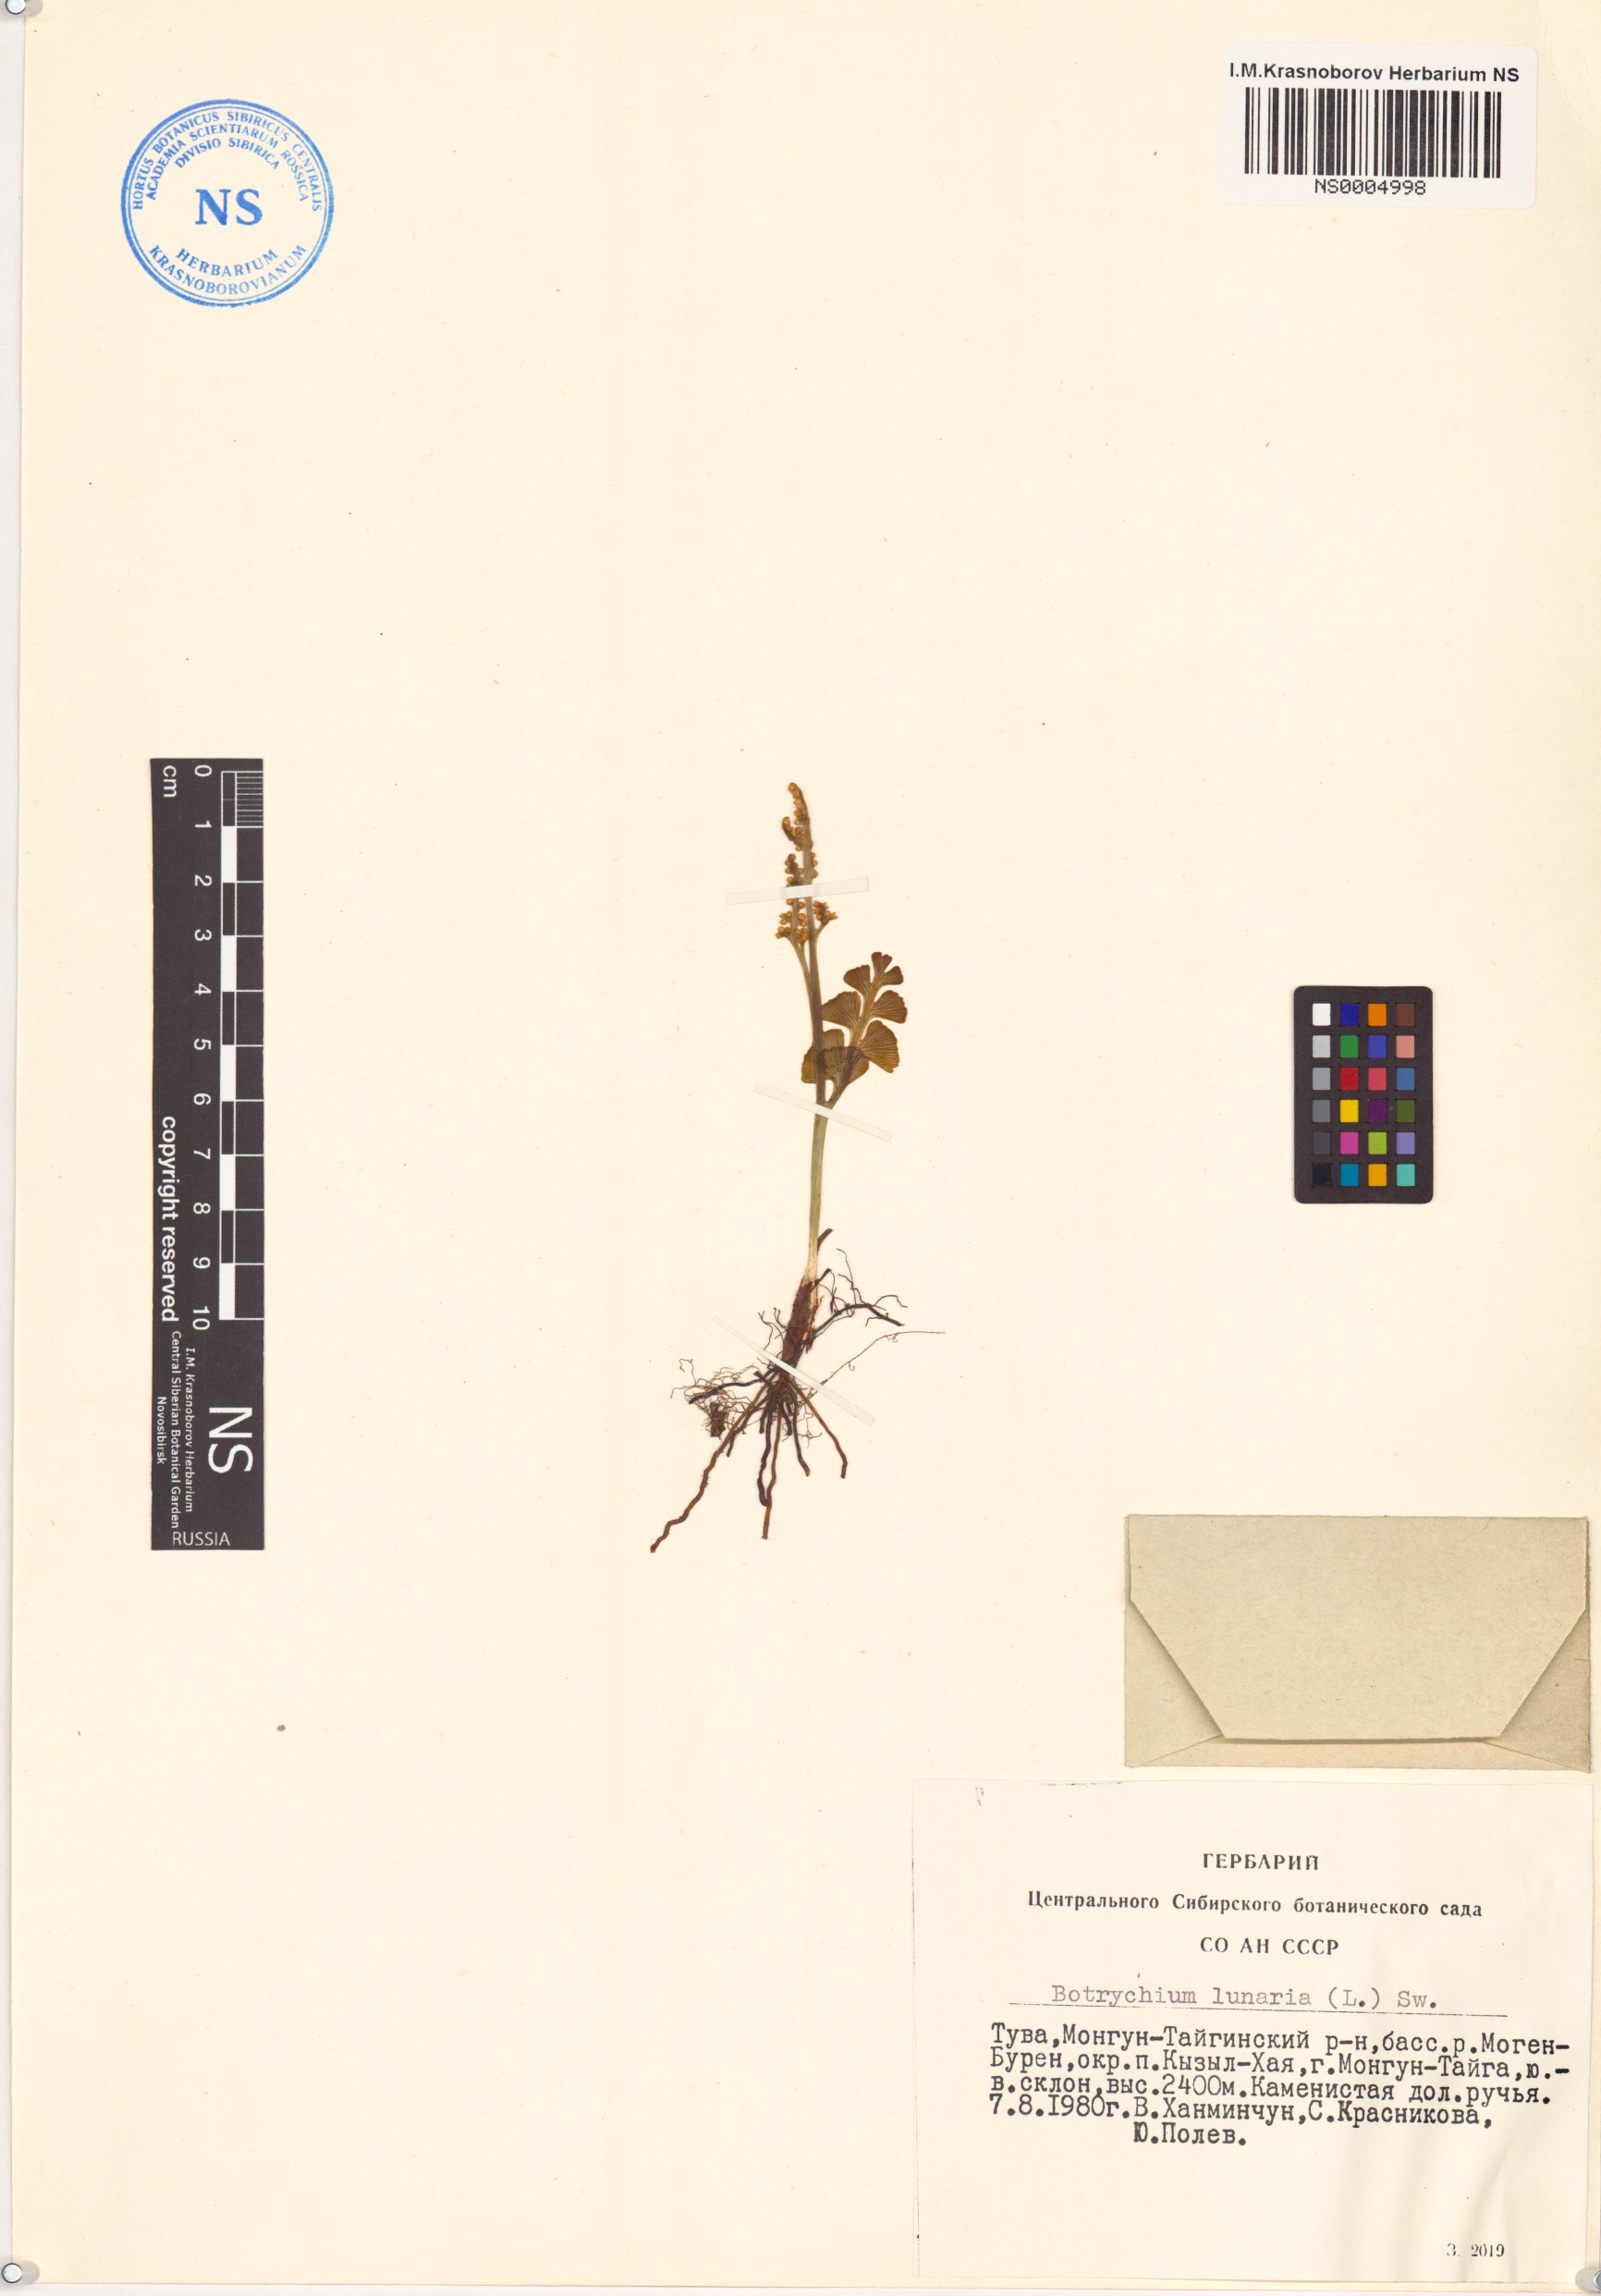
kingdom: Plantae
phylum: Tracheophyta
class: Polypodiopsida
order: Ophioglossales
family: Ophioglossaceae
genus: Botrychium
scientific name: Botrychium lunaria
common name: Moonwort
